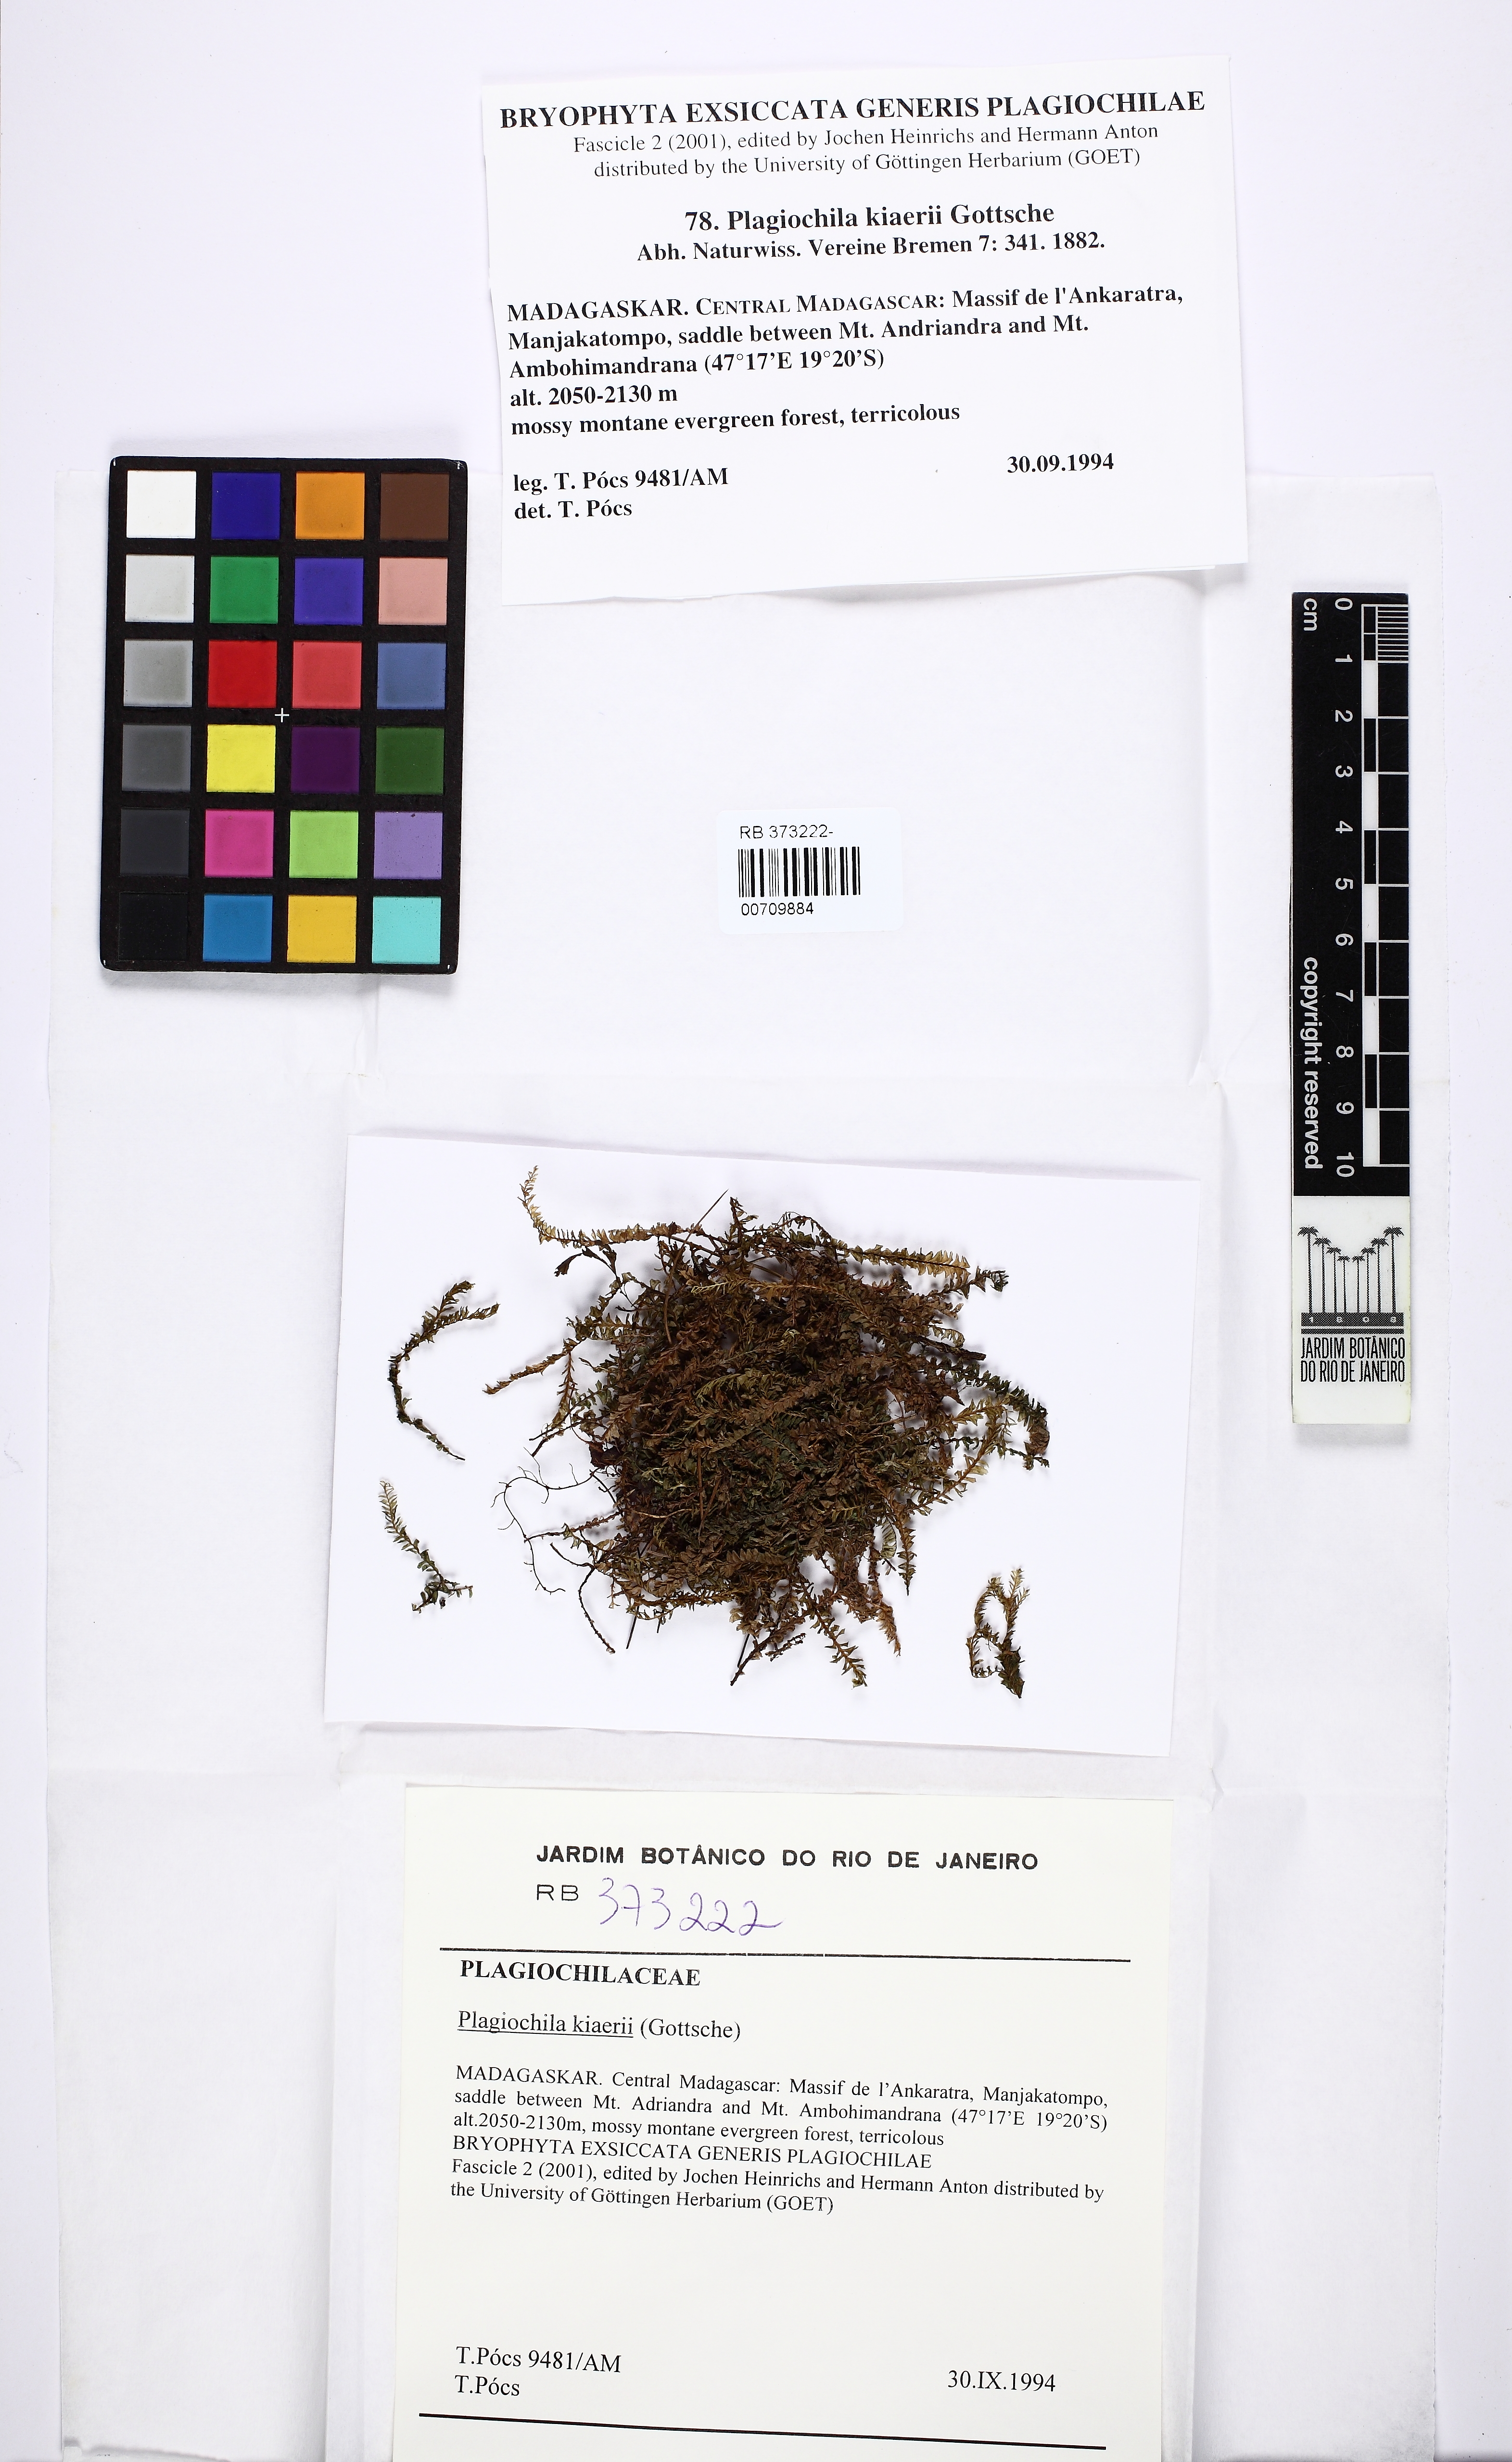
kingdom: Plantae
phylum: Marchantiophyta
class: Jungermanniopsida
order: Jungermanniales
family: Plagiochilaceae
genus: Plagiochila
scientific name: Plagiochila kiaeri
